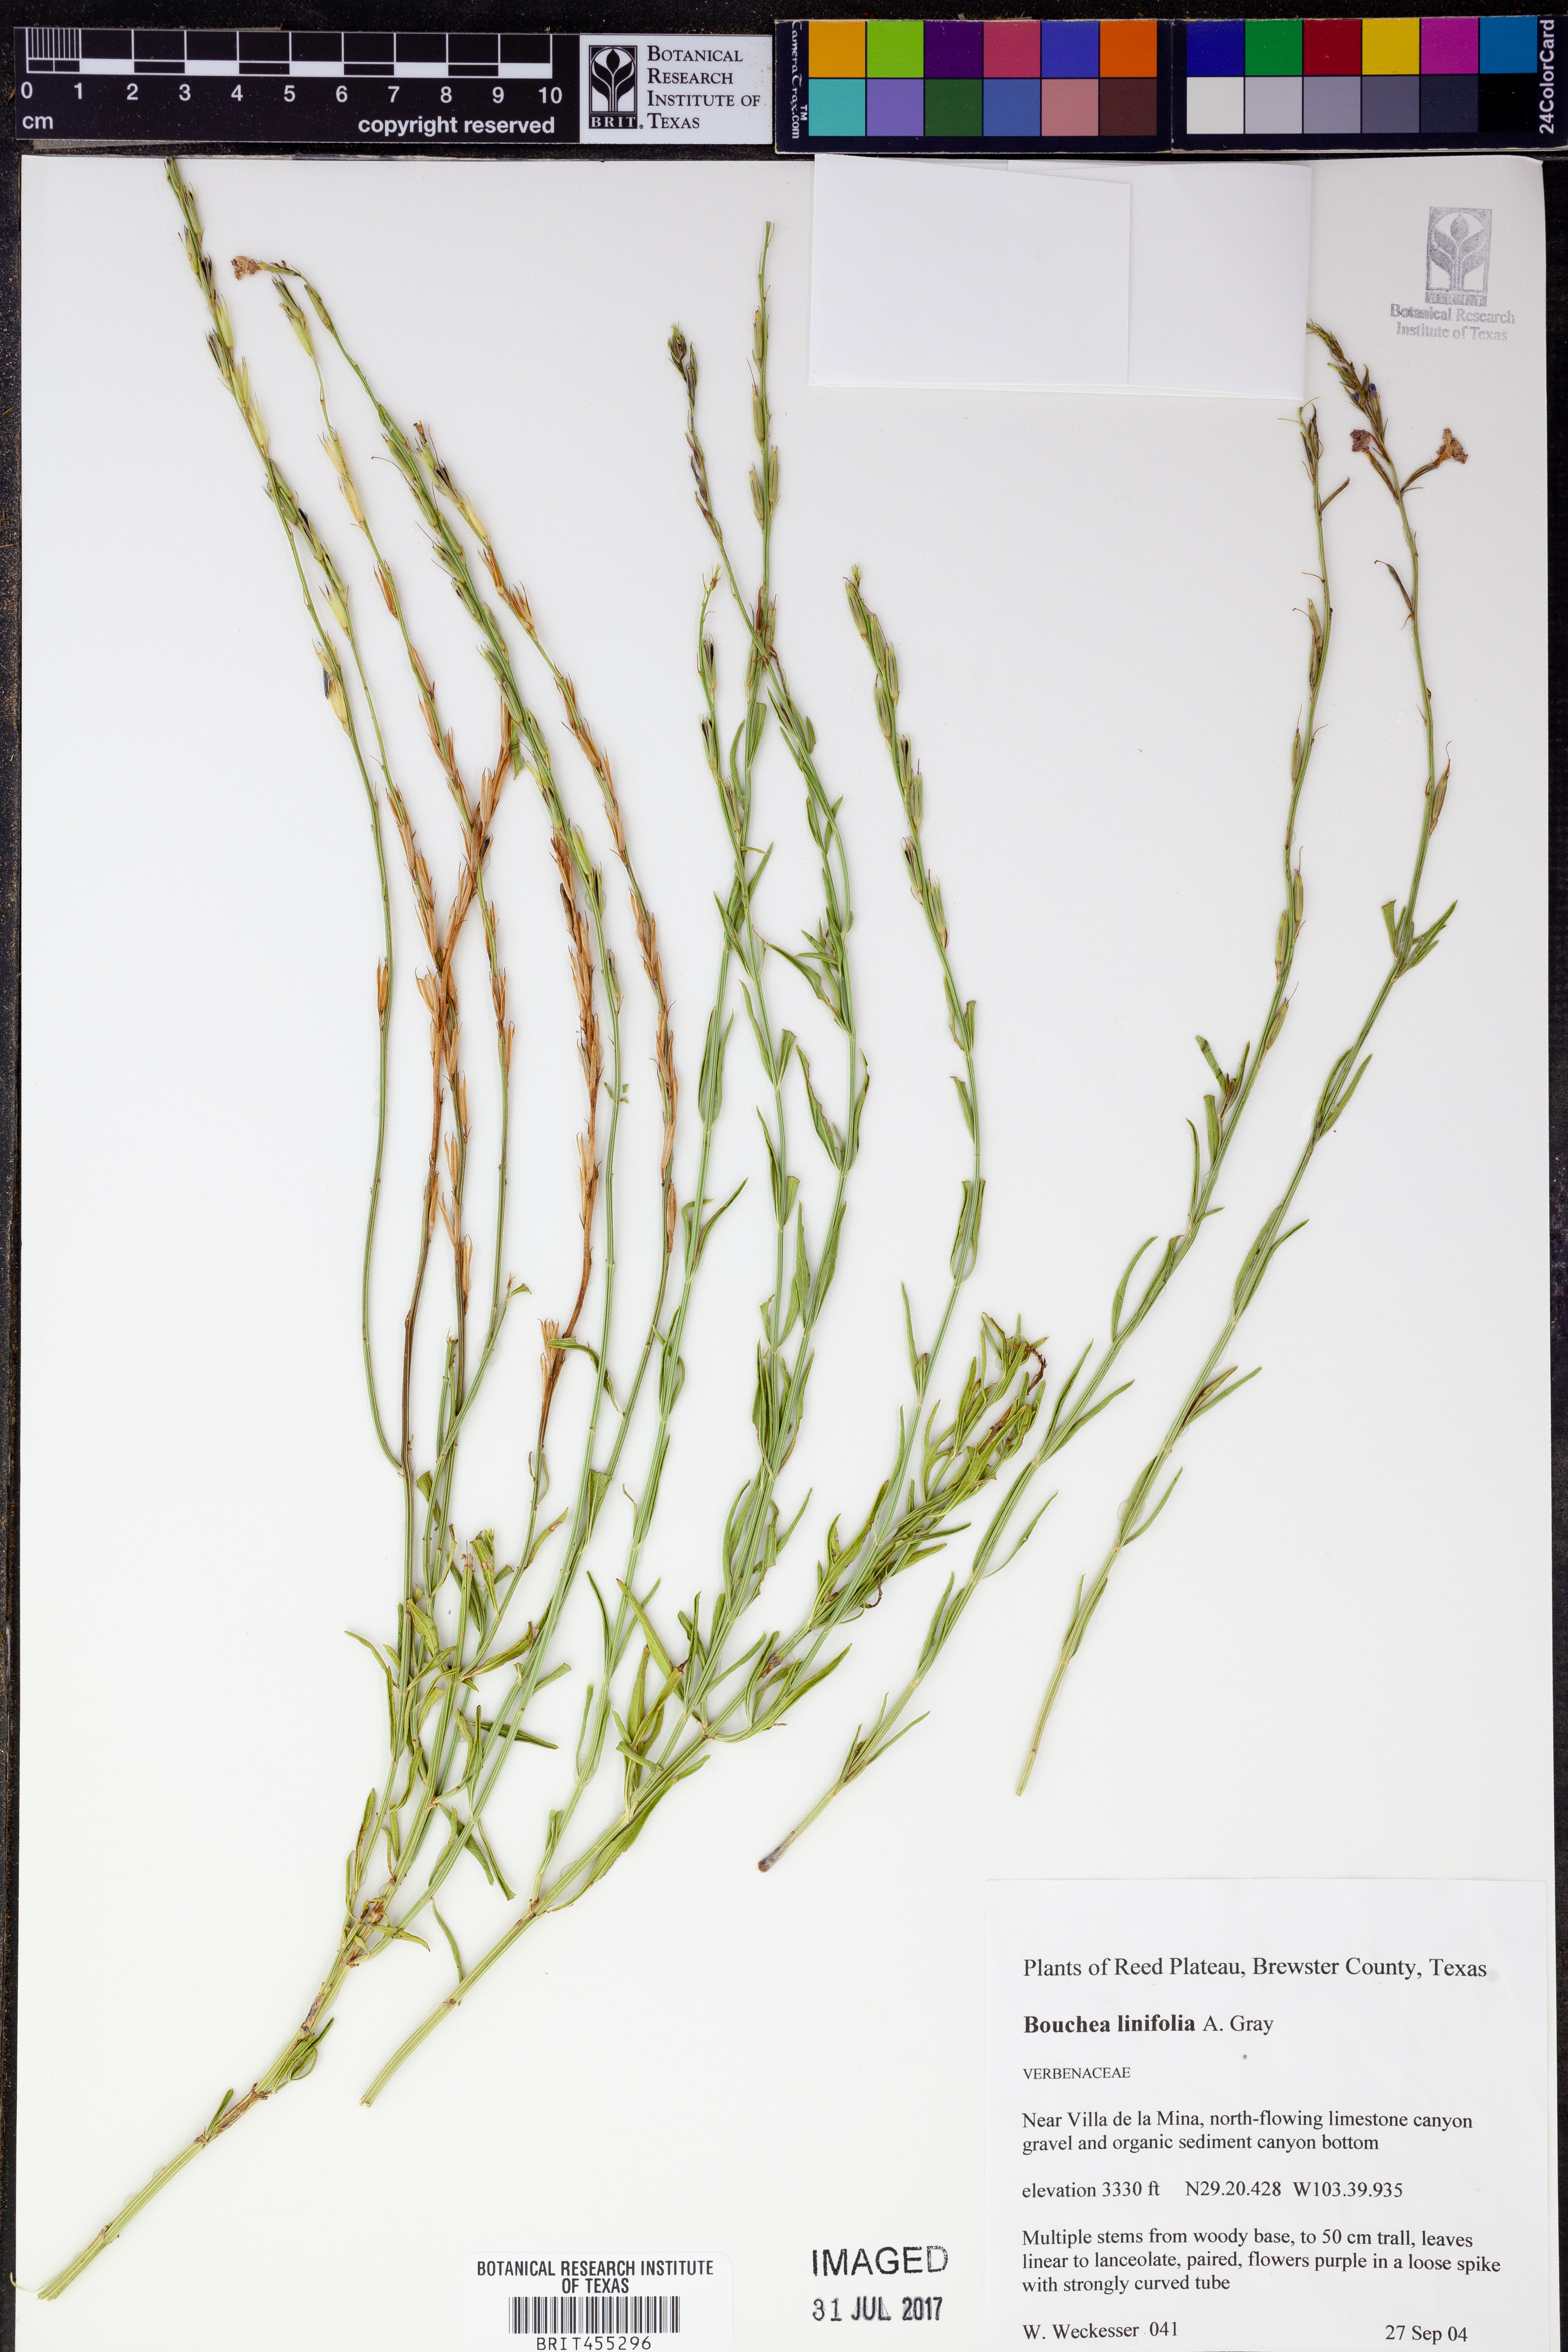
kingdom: Plantae
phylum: Tracheophyta
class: Magnoliopsida
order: Lamiales
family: Verbenaceae
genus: Bouchea
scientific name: Bouchea linifolia
